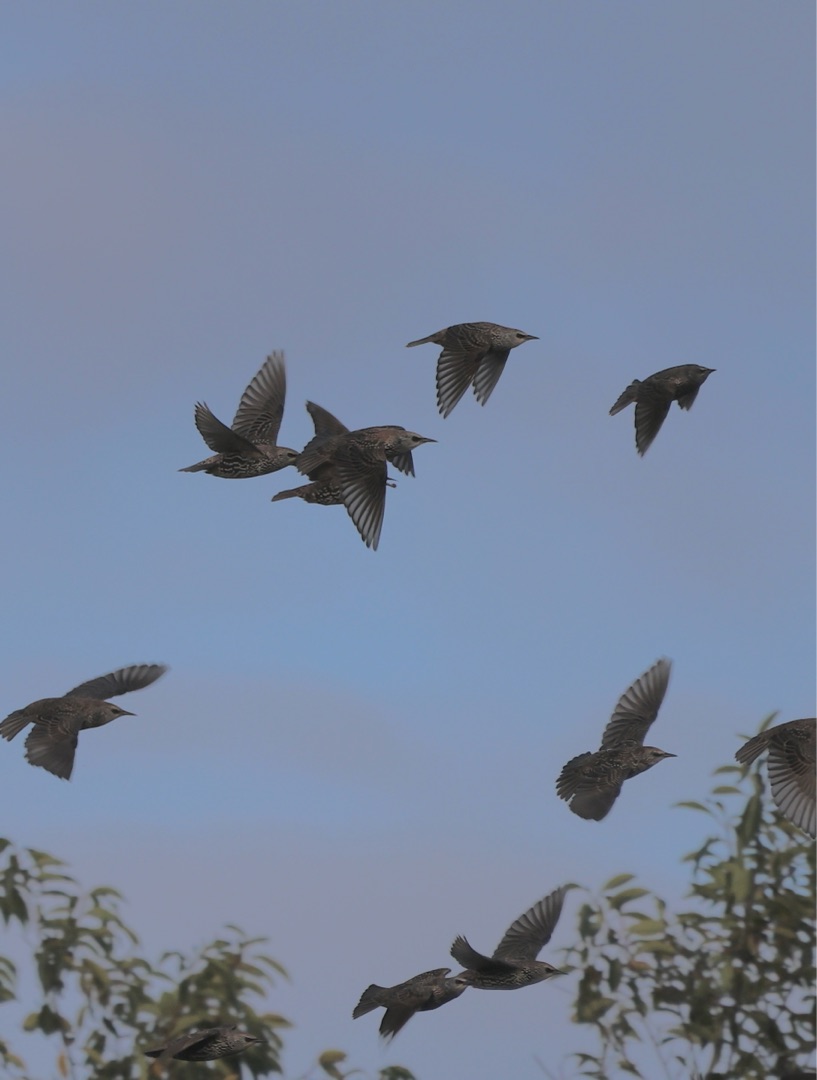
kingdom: Animalia
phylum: Chordata
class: Aves
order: Passeriformes
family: Sturnidae
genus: Sturnus
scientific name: Sturnus vulgaris
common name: Stær
